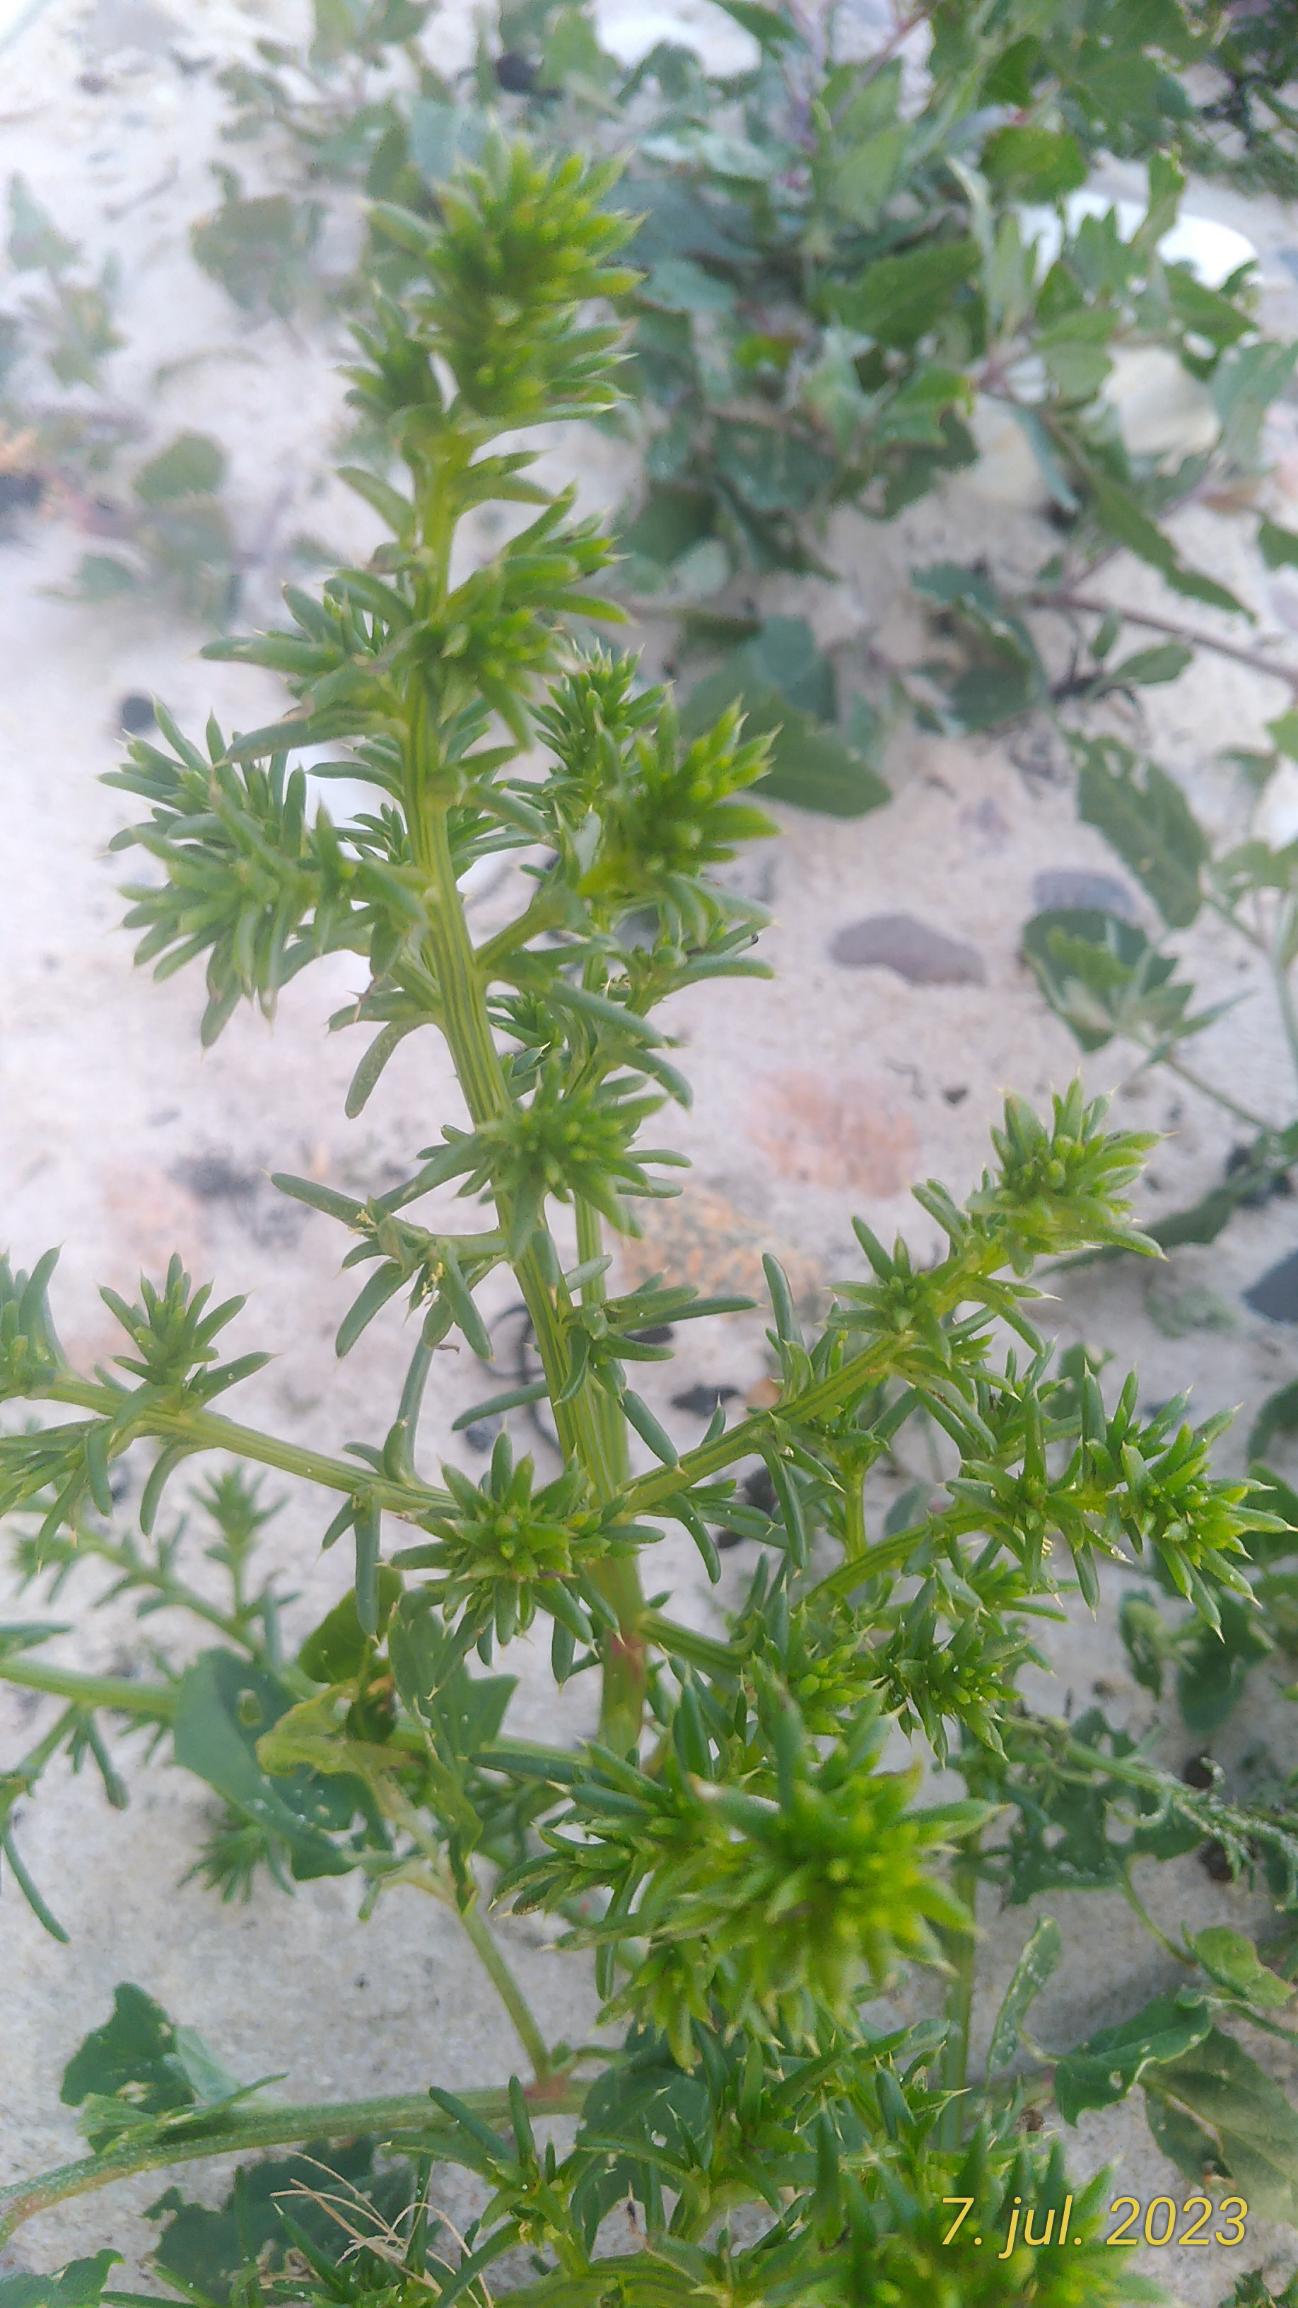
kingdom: Plantae
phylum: Tracheophyta
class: Magnoliopsida
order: Caryophyllales
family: Amaranthaceae
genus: Salsola
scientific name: Salsola kali
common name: Sodaurt
